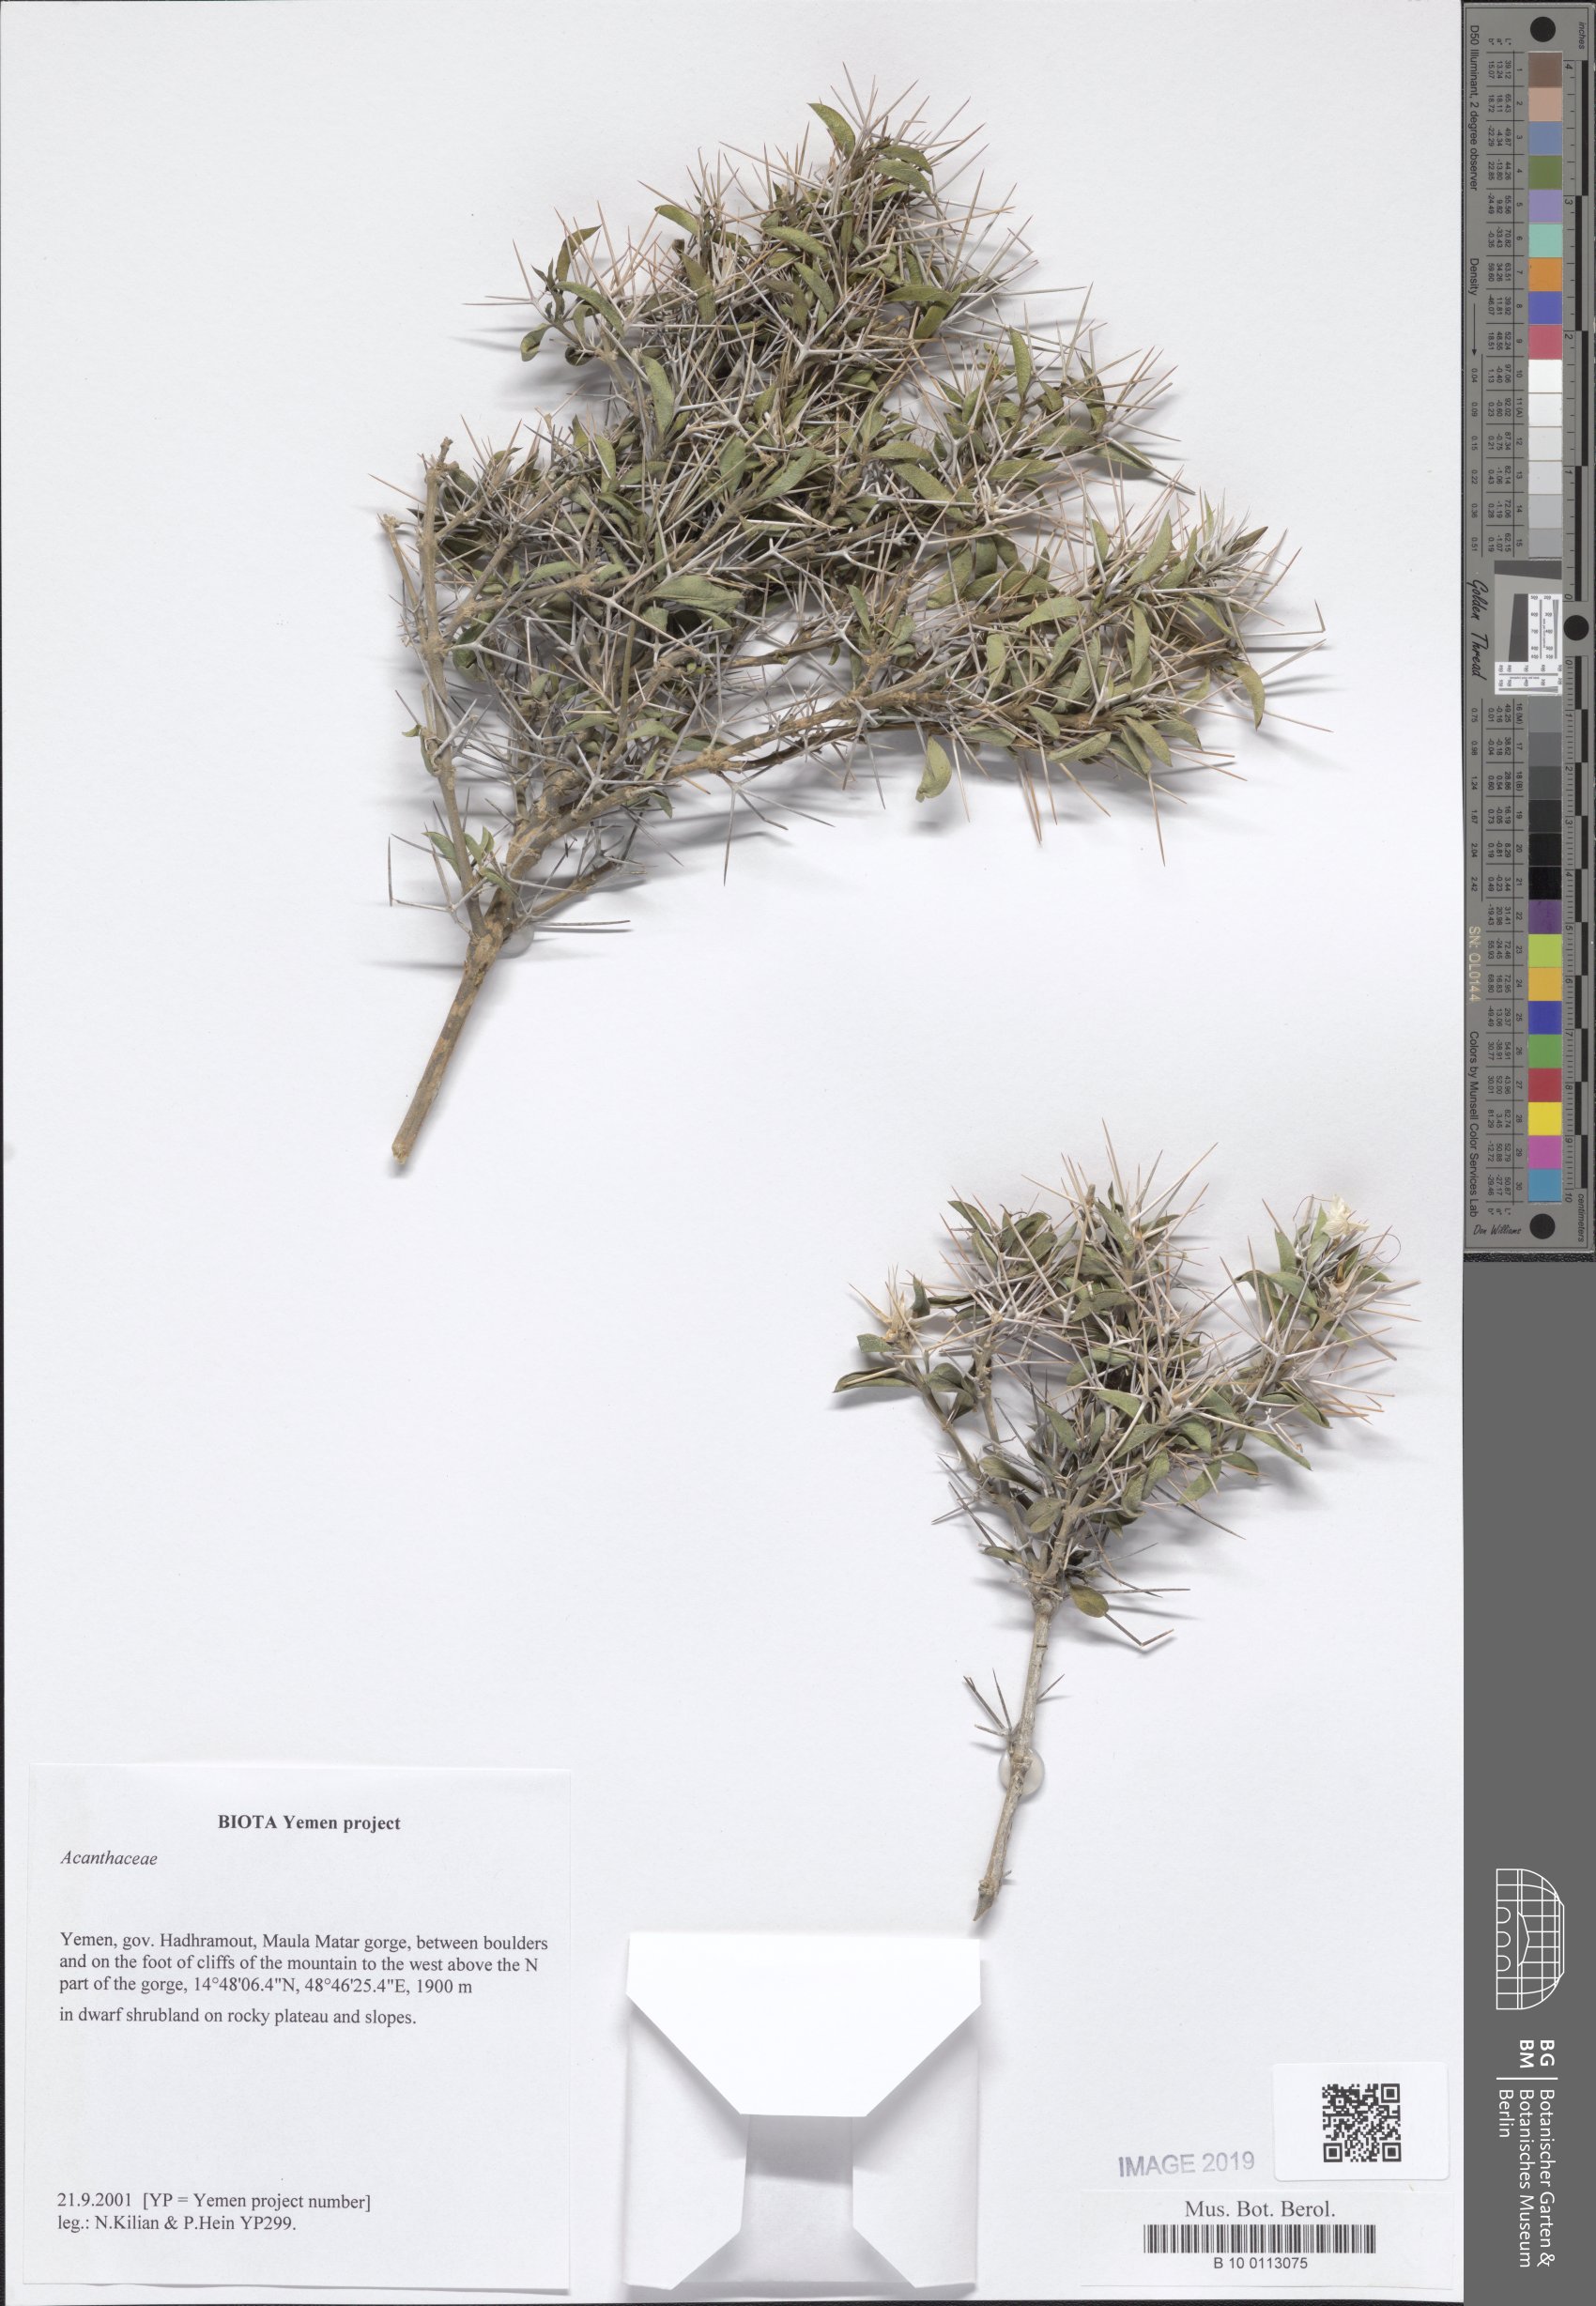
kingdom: Plantae
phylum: Tracheophyta
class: Magnoliopsida
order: Lamiales
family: Acanthaceae
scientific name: Acanthaceae
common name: Acanthaceae
